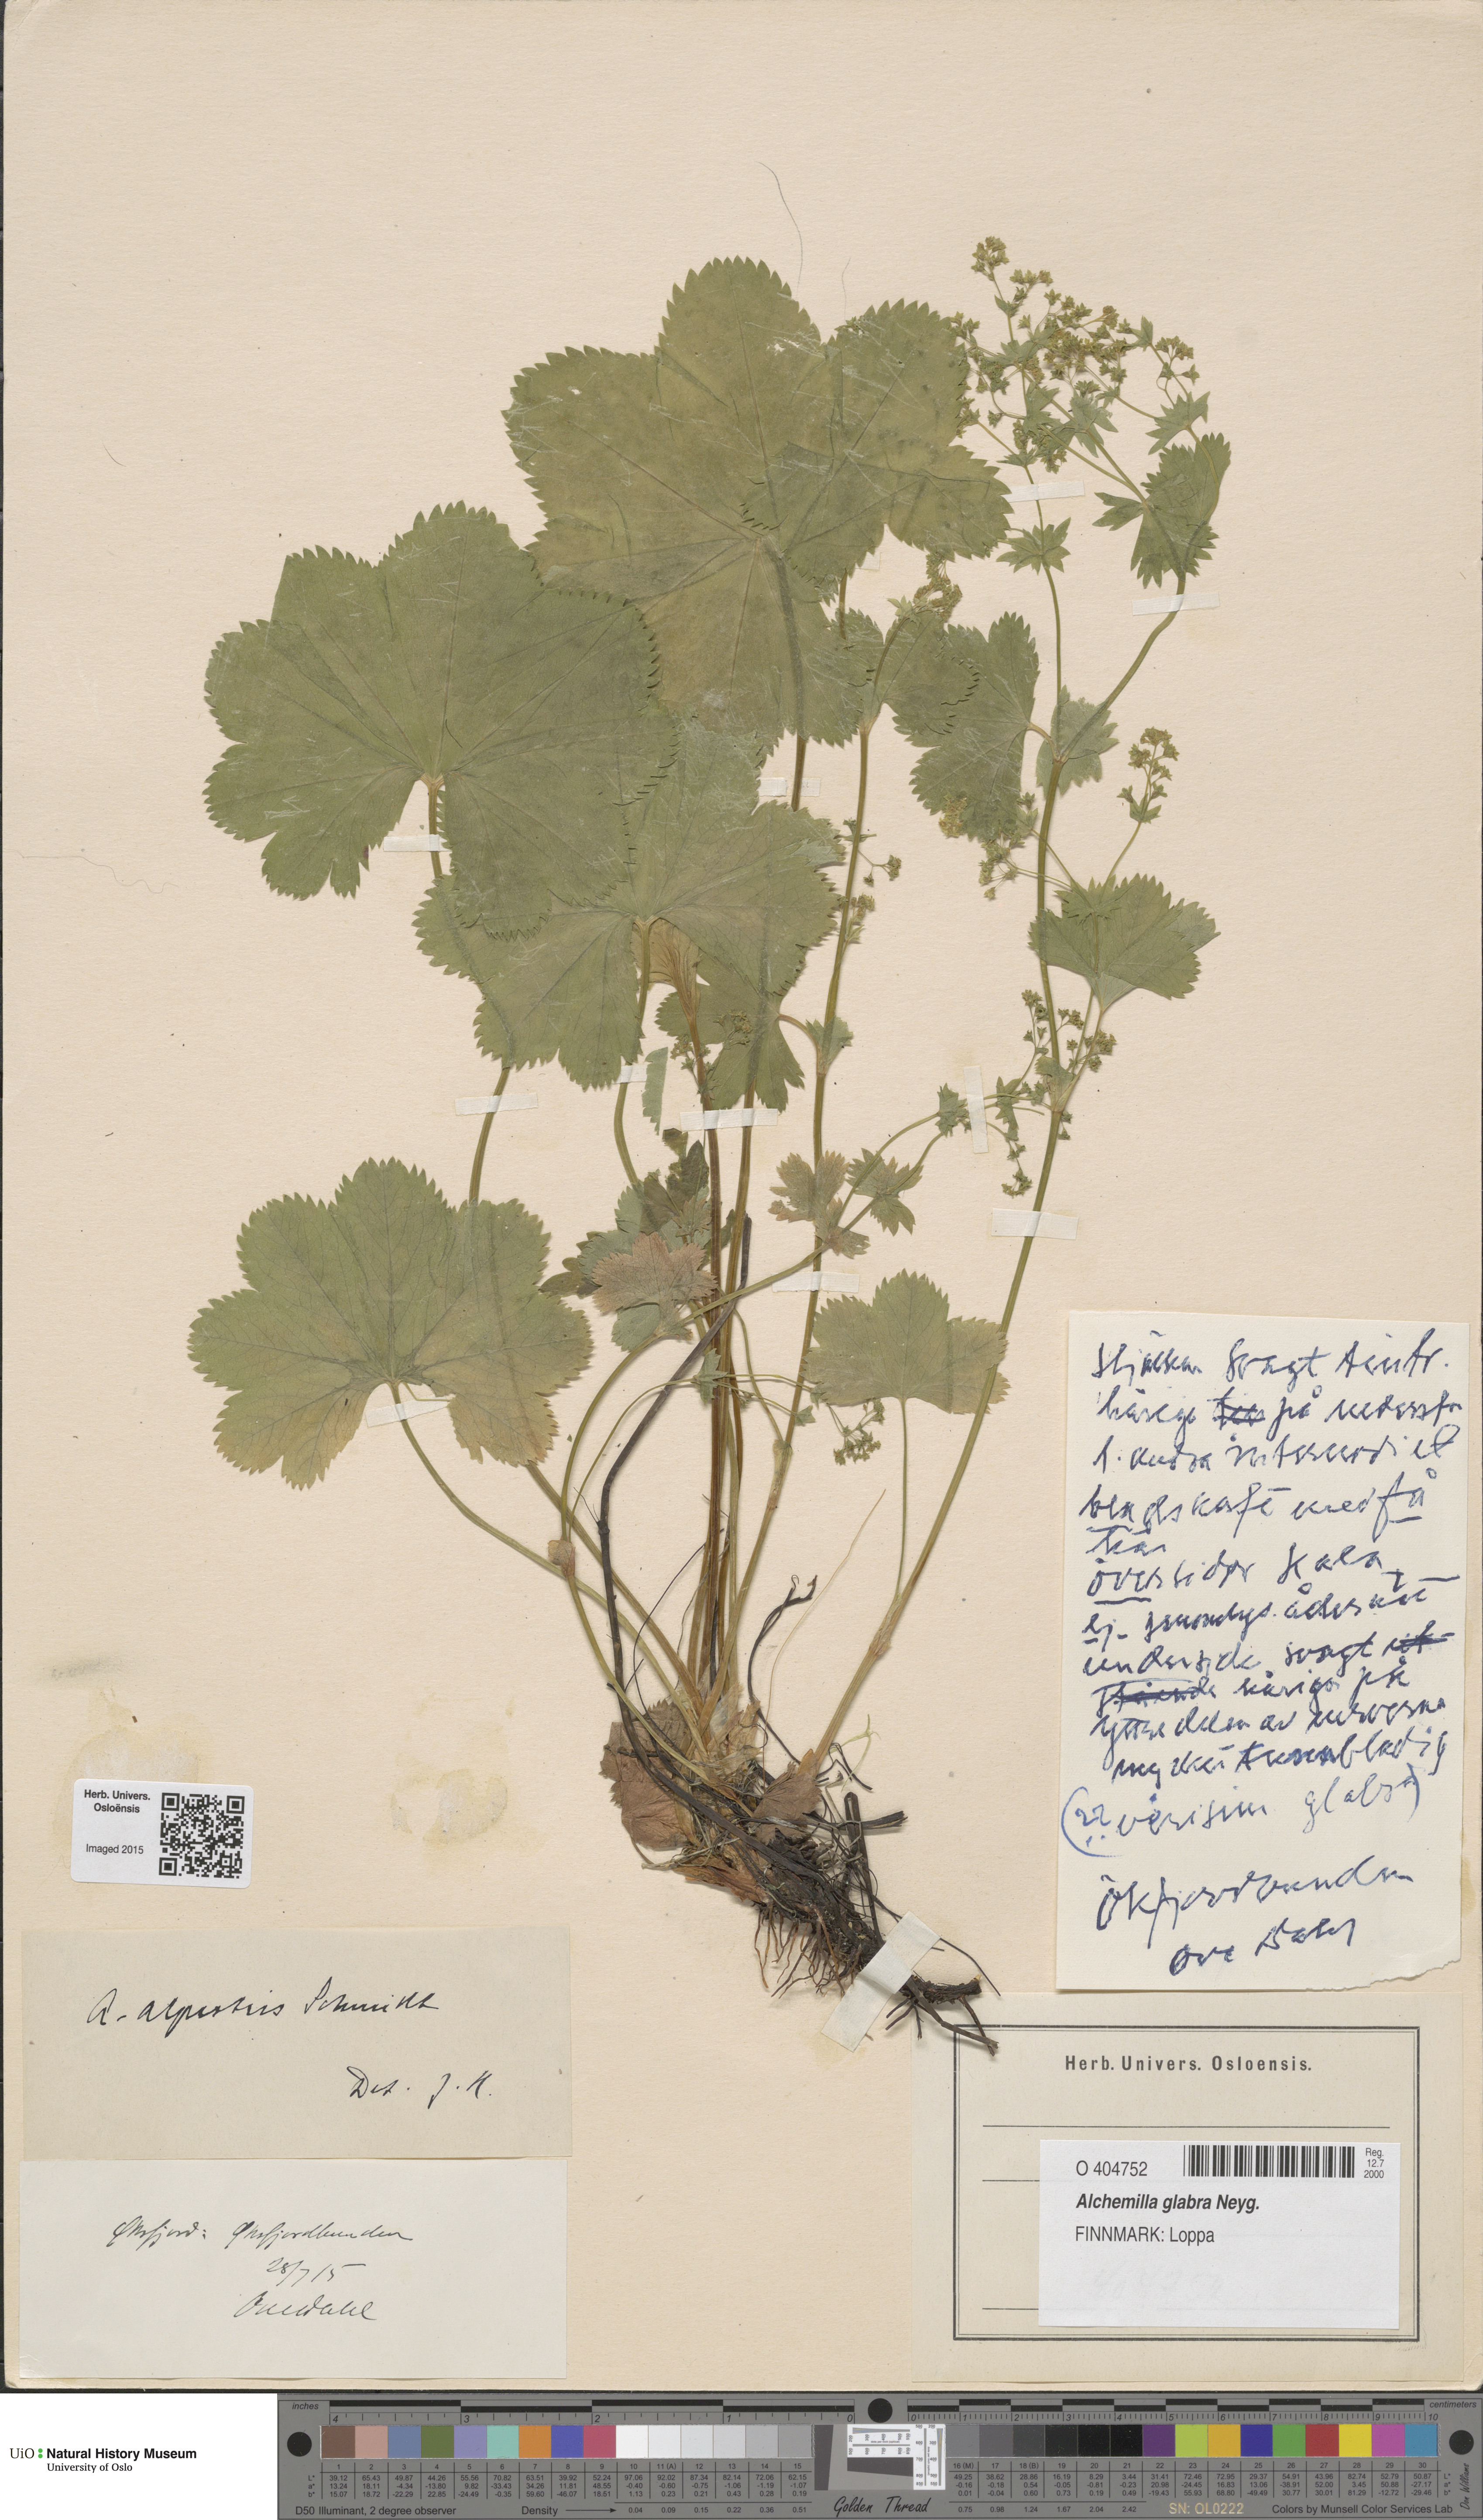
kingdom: Plantae
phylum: Tracheophyta
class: Magnoliopsida
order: Rosales
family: Rosaceae
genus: Alchemilla
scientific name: Alchemilla glabra
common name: Smooth lady's-mantle
